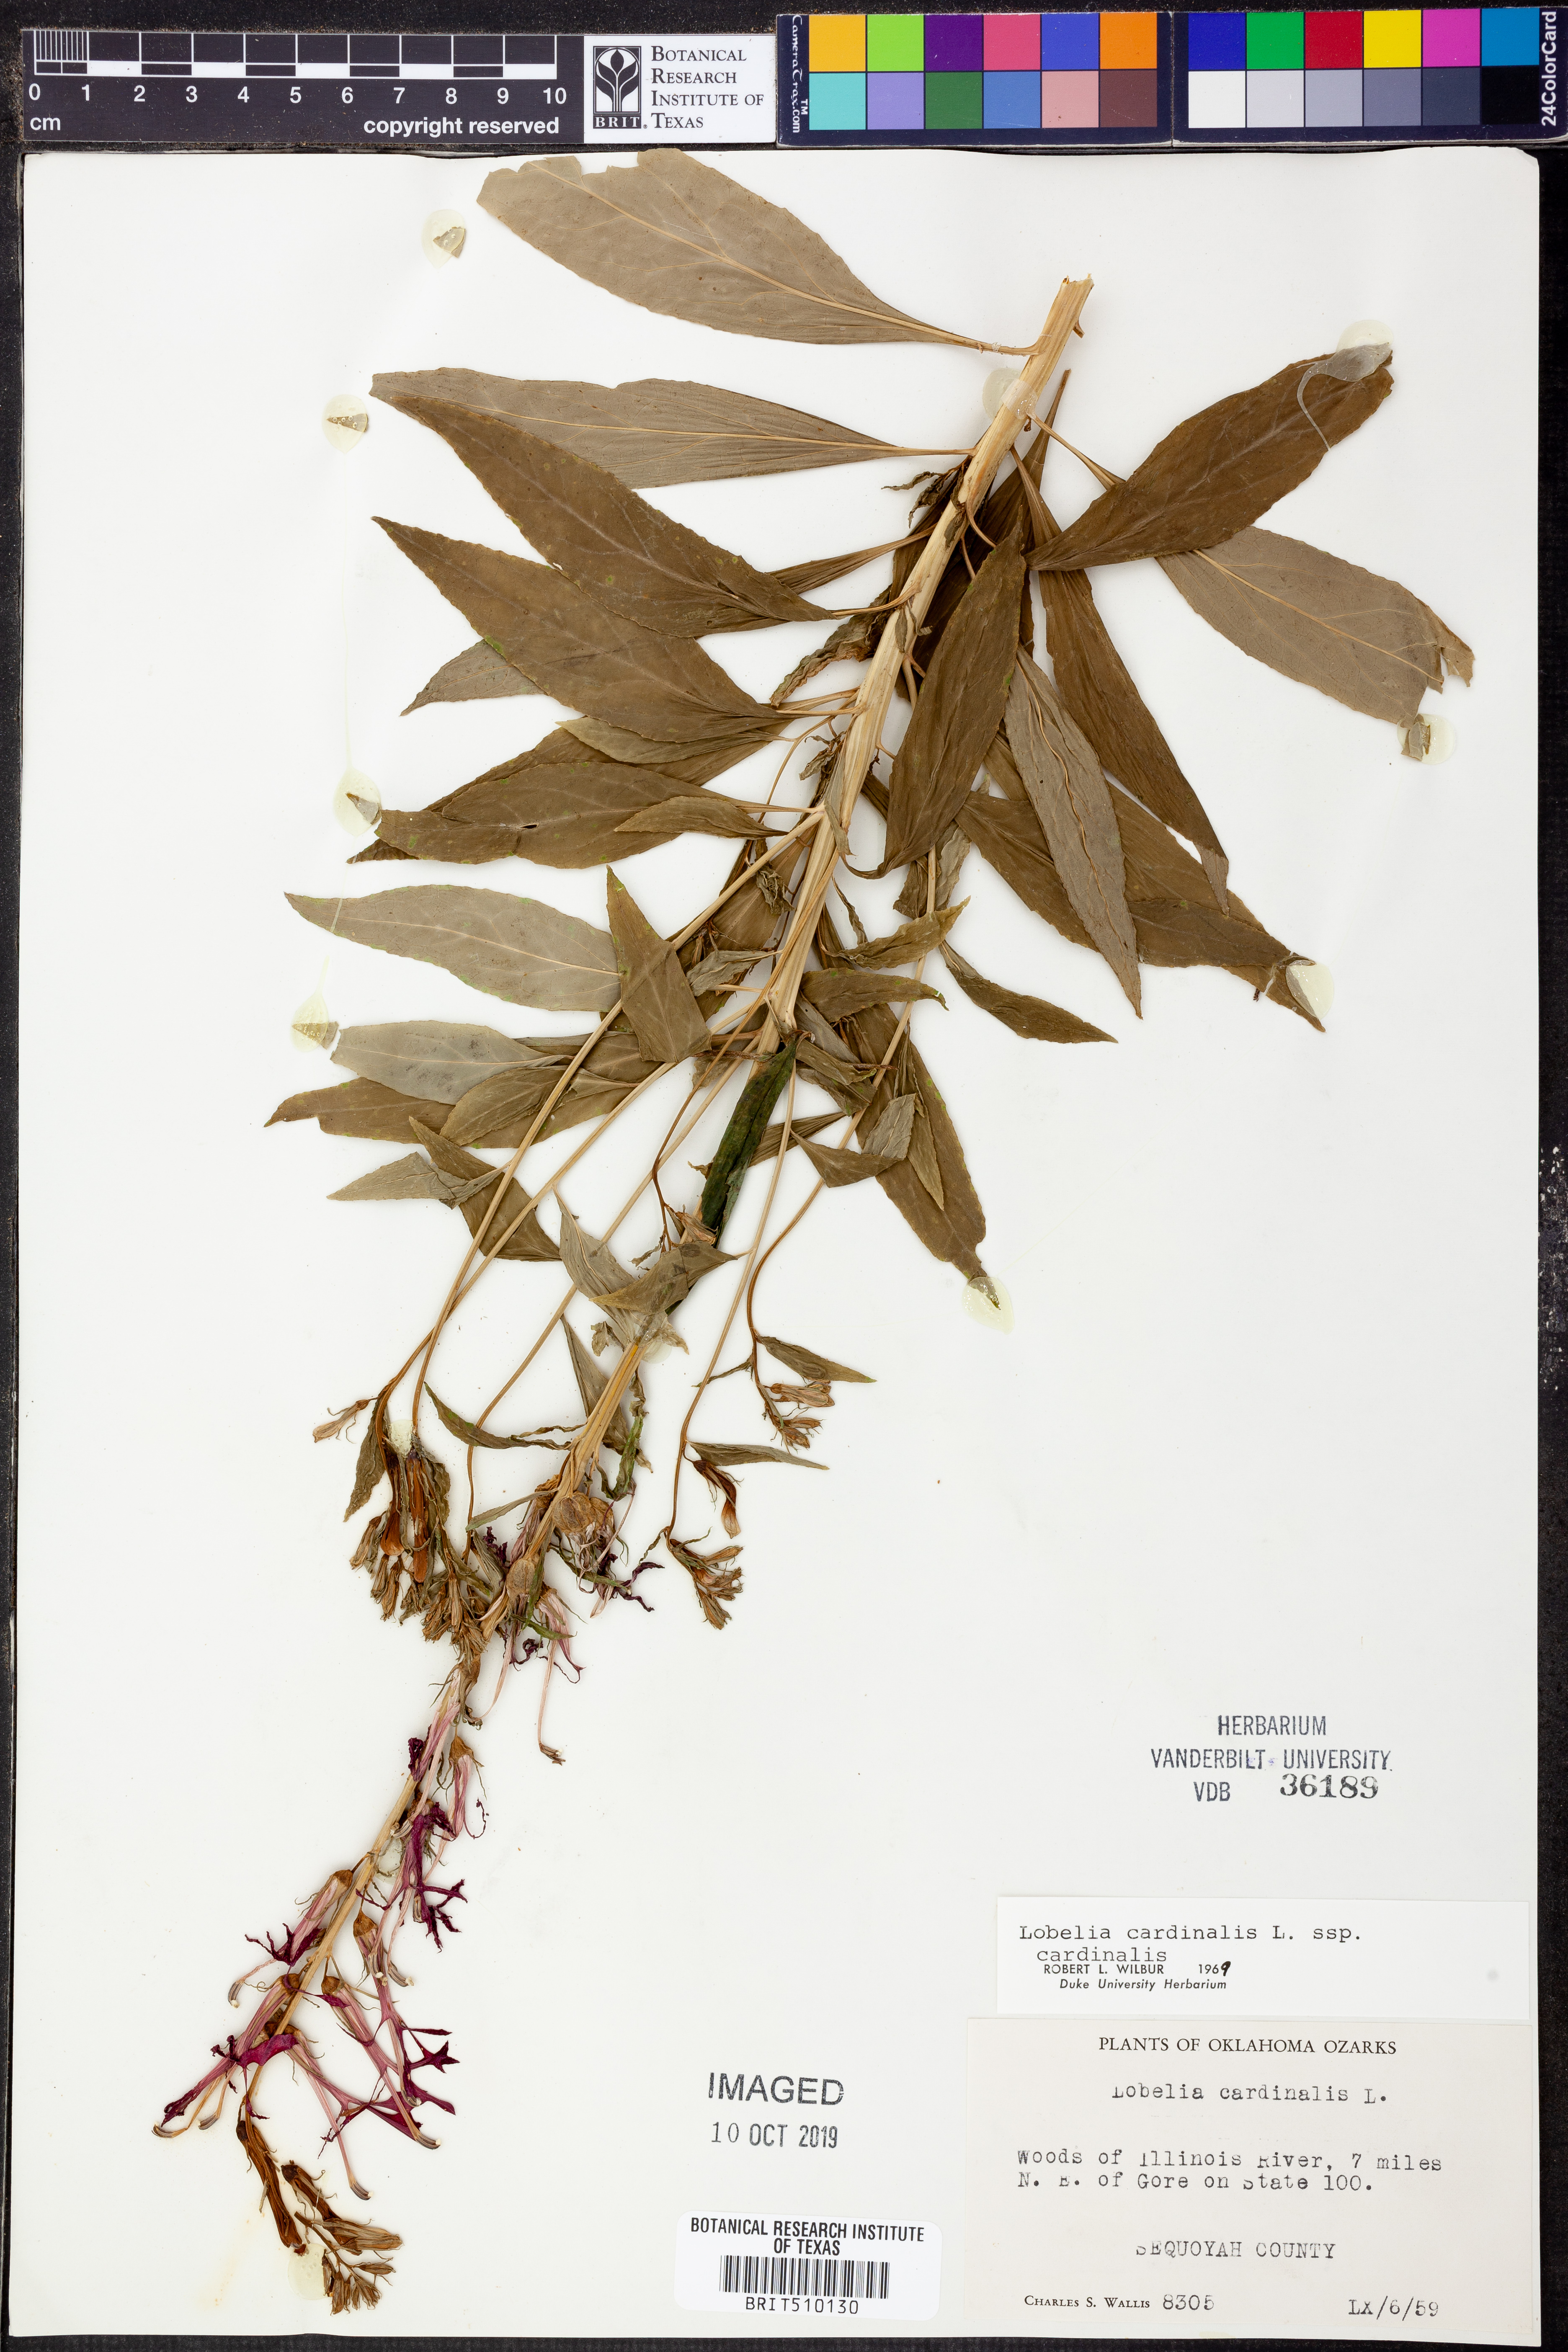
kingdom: Plantae
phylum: Tracheophyta
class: Magnoliopsida
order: Asterales
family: Campanulaceae
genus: Lobelia
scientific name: Lobelia cardinalis
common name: Cardinal flower
